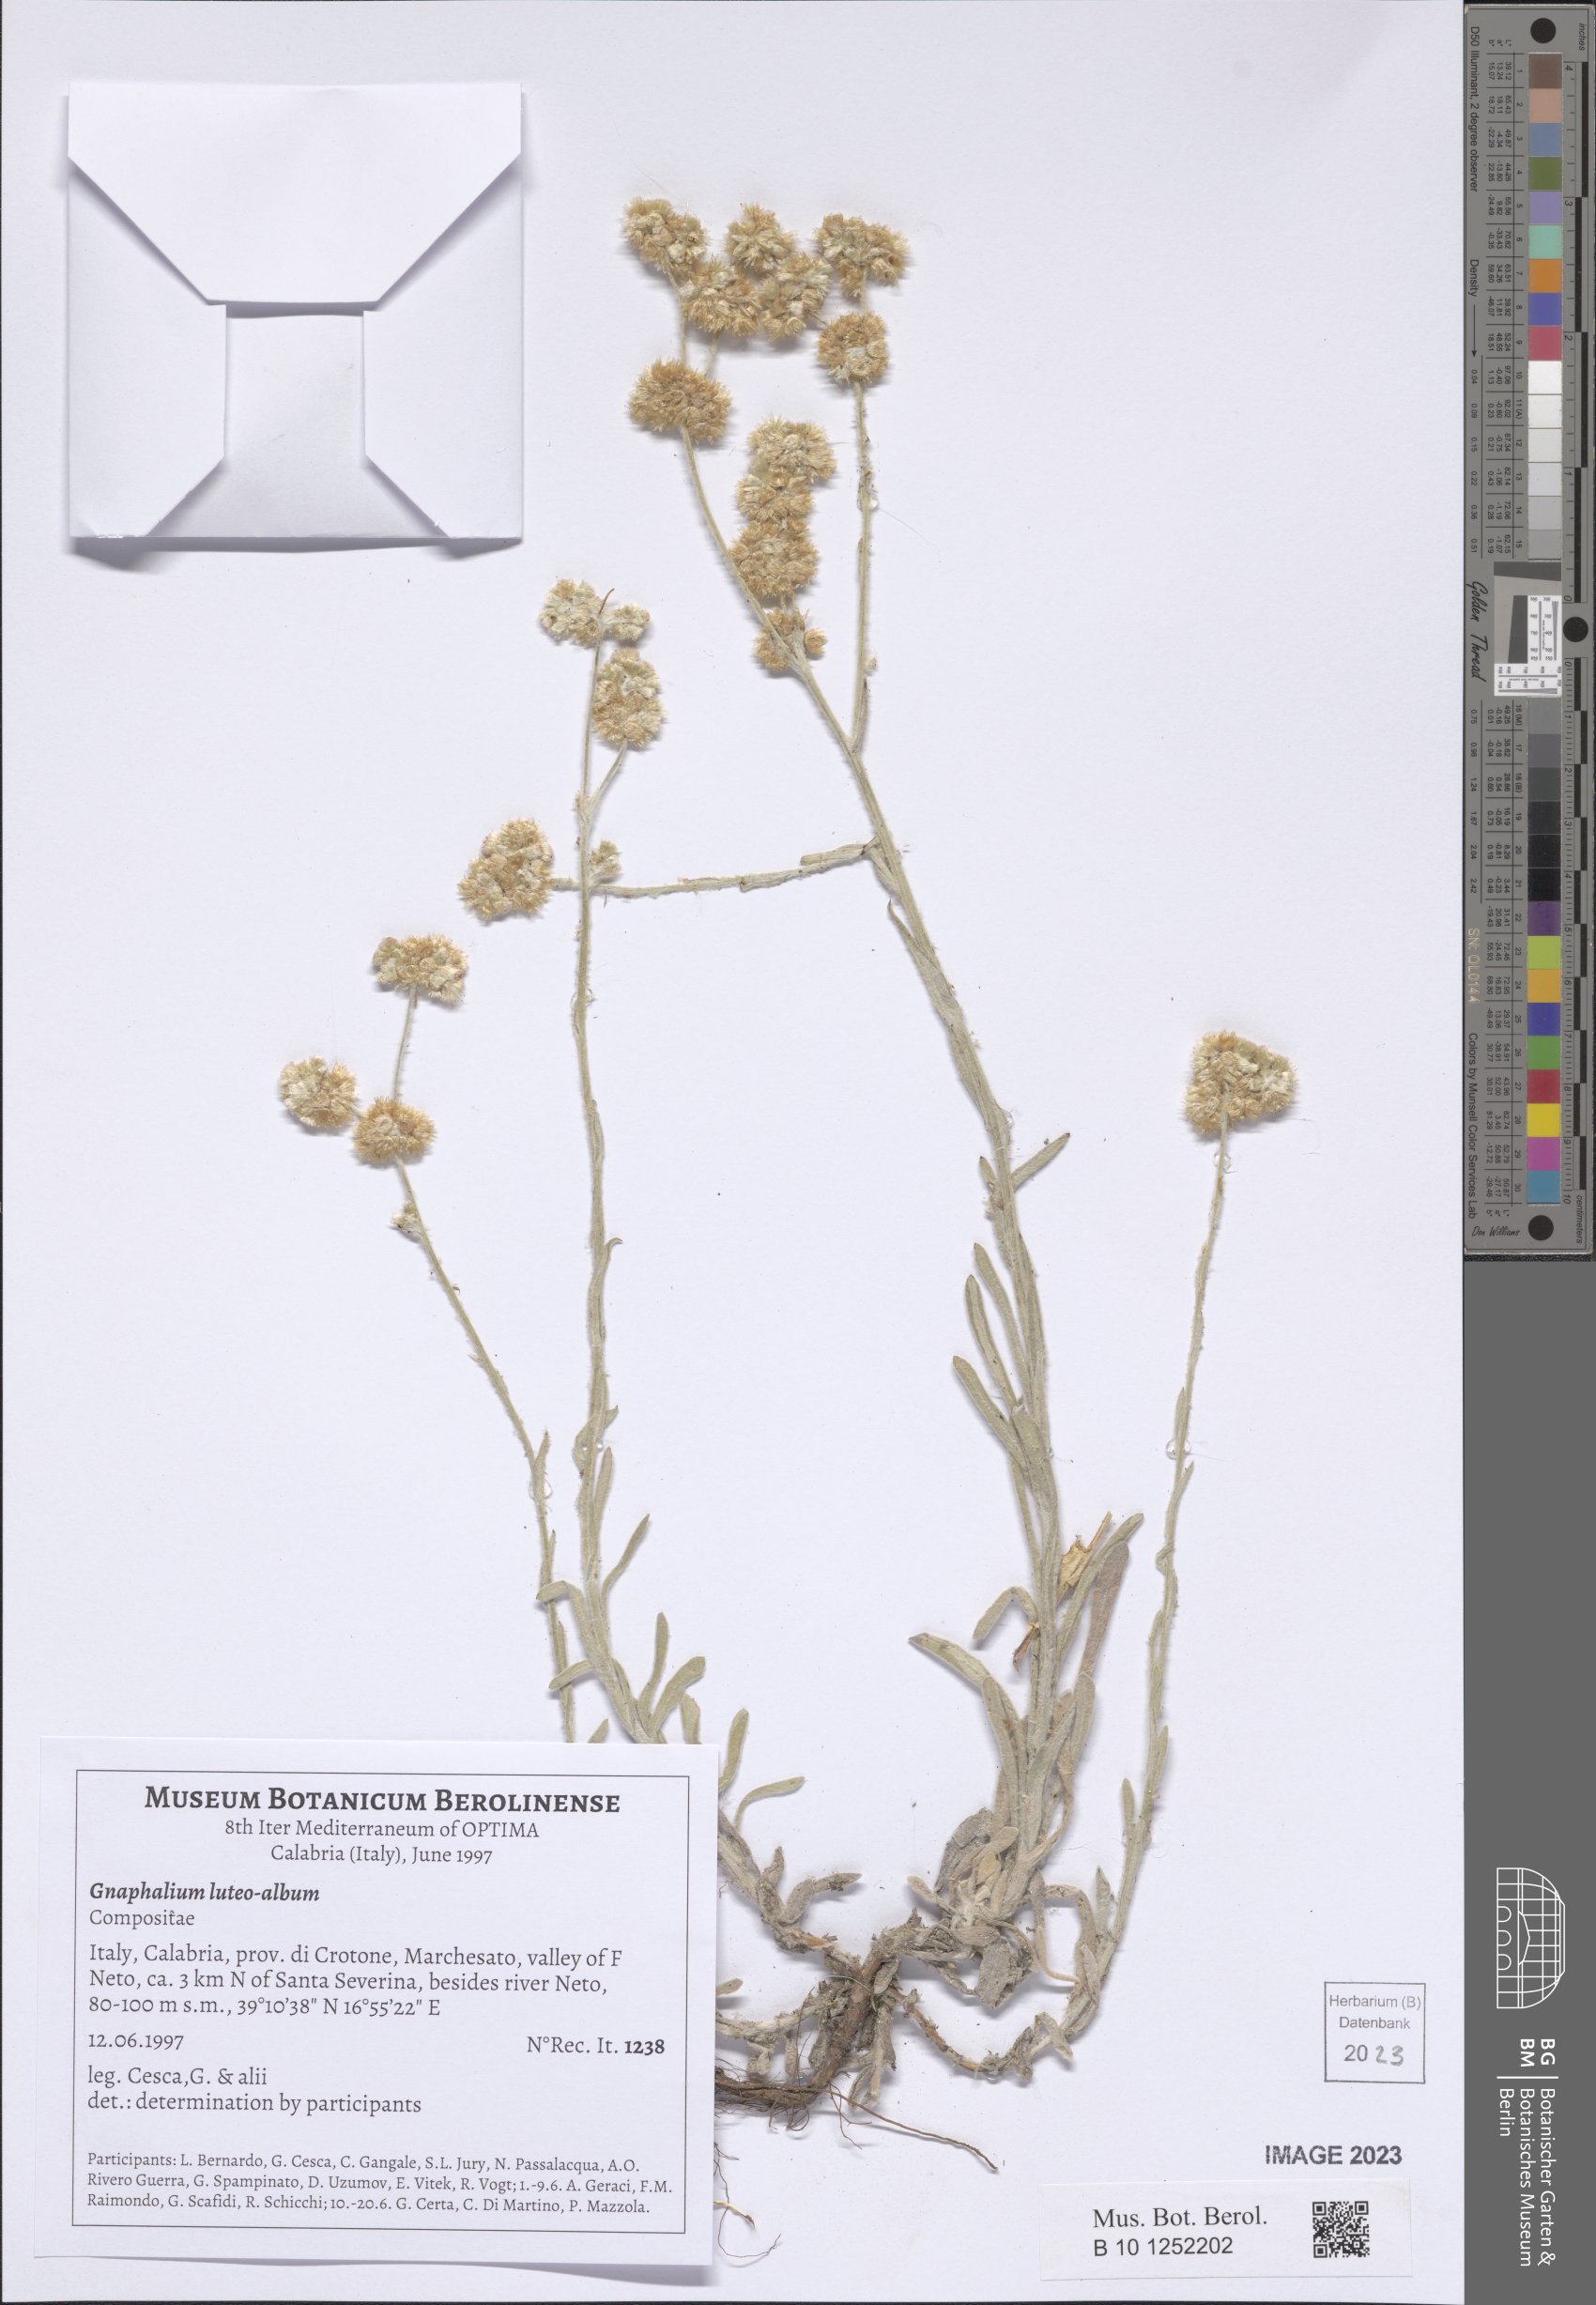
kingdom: Plantae
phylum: Tracheophyta
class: Magnoliopsida
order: Asterales
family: Asteraceae
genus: Helichrysum
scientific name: Helichrysum luteoalbum
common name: Daisy
